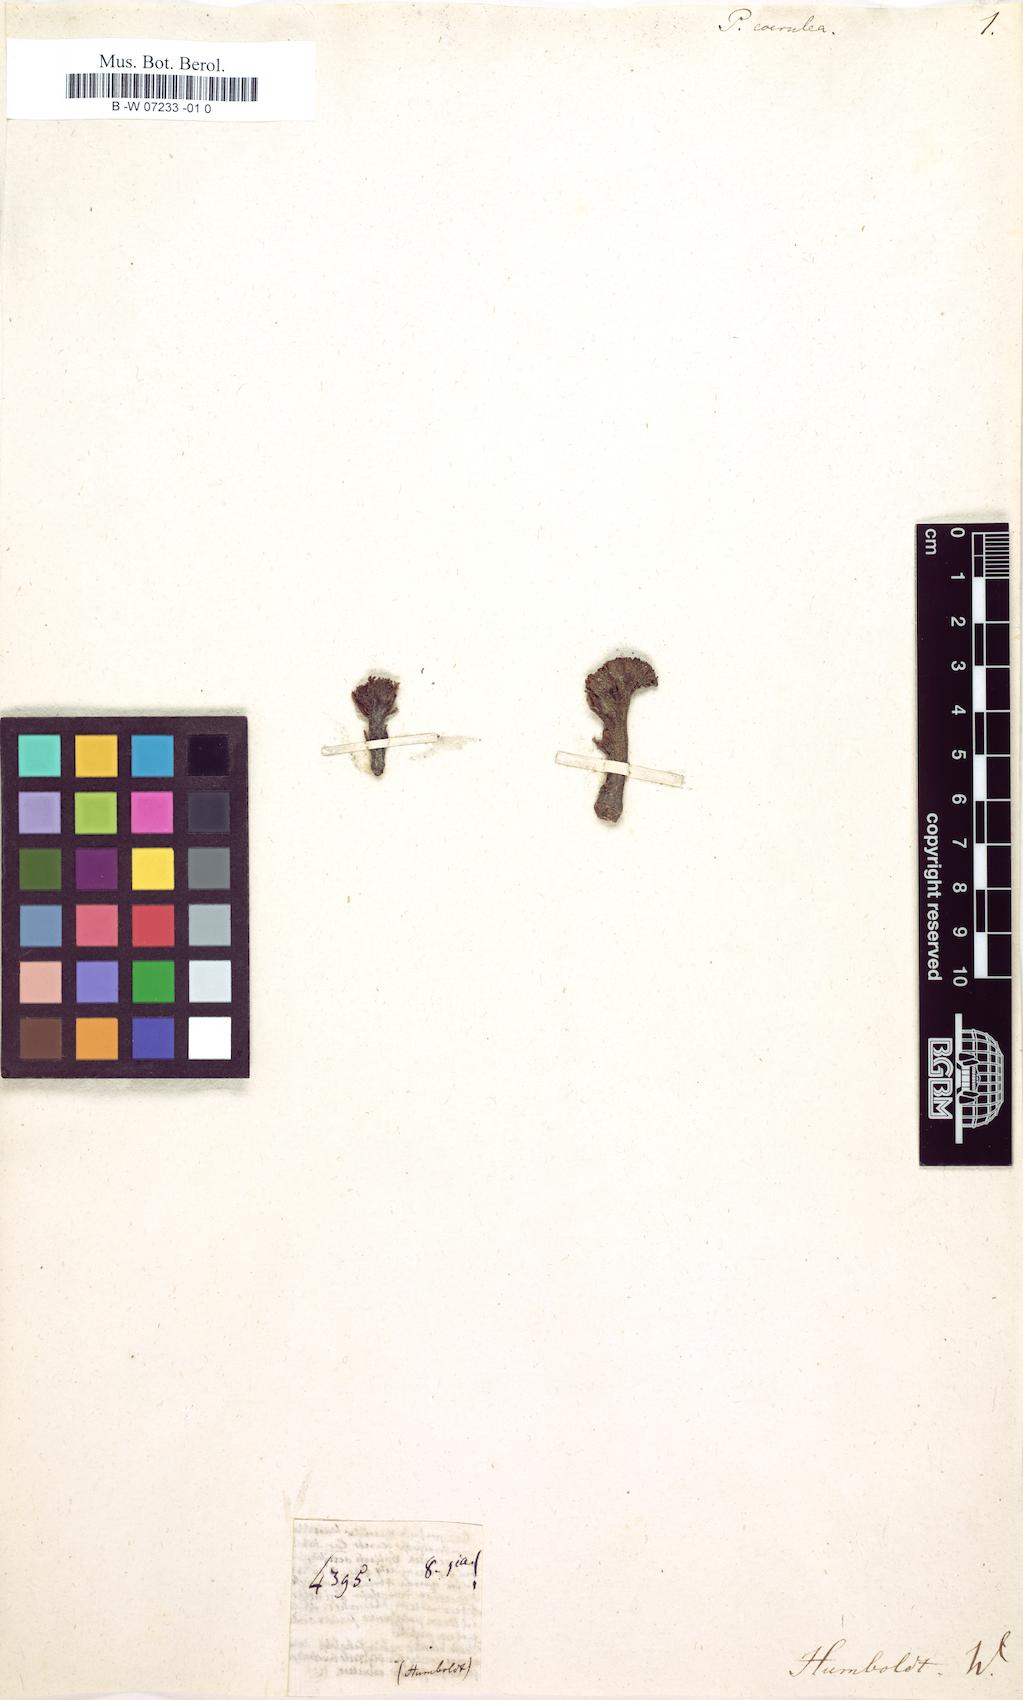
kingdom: Plantae
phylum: Tracheophyta
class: Magnoliopsida
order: Fabales
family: Fabaceae
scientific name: Fabaceae
